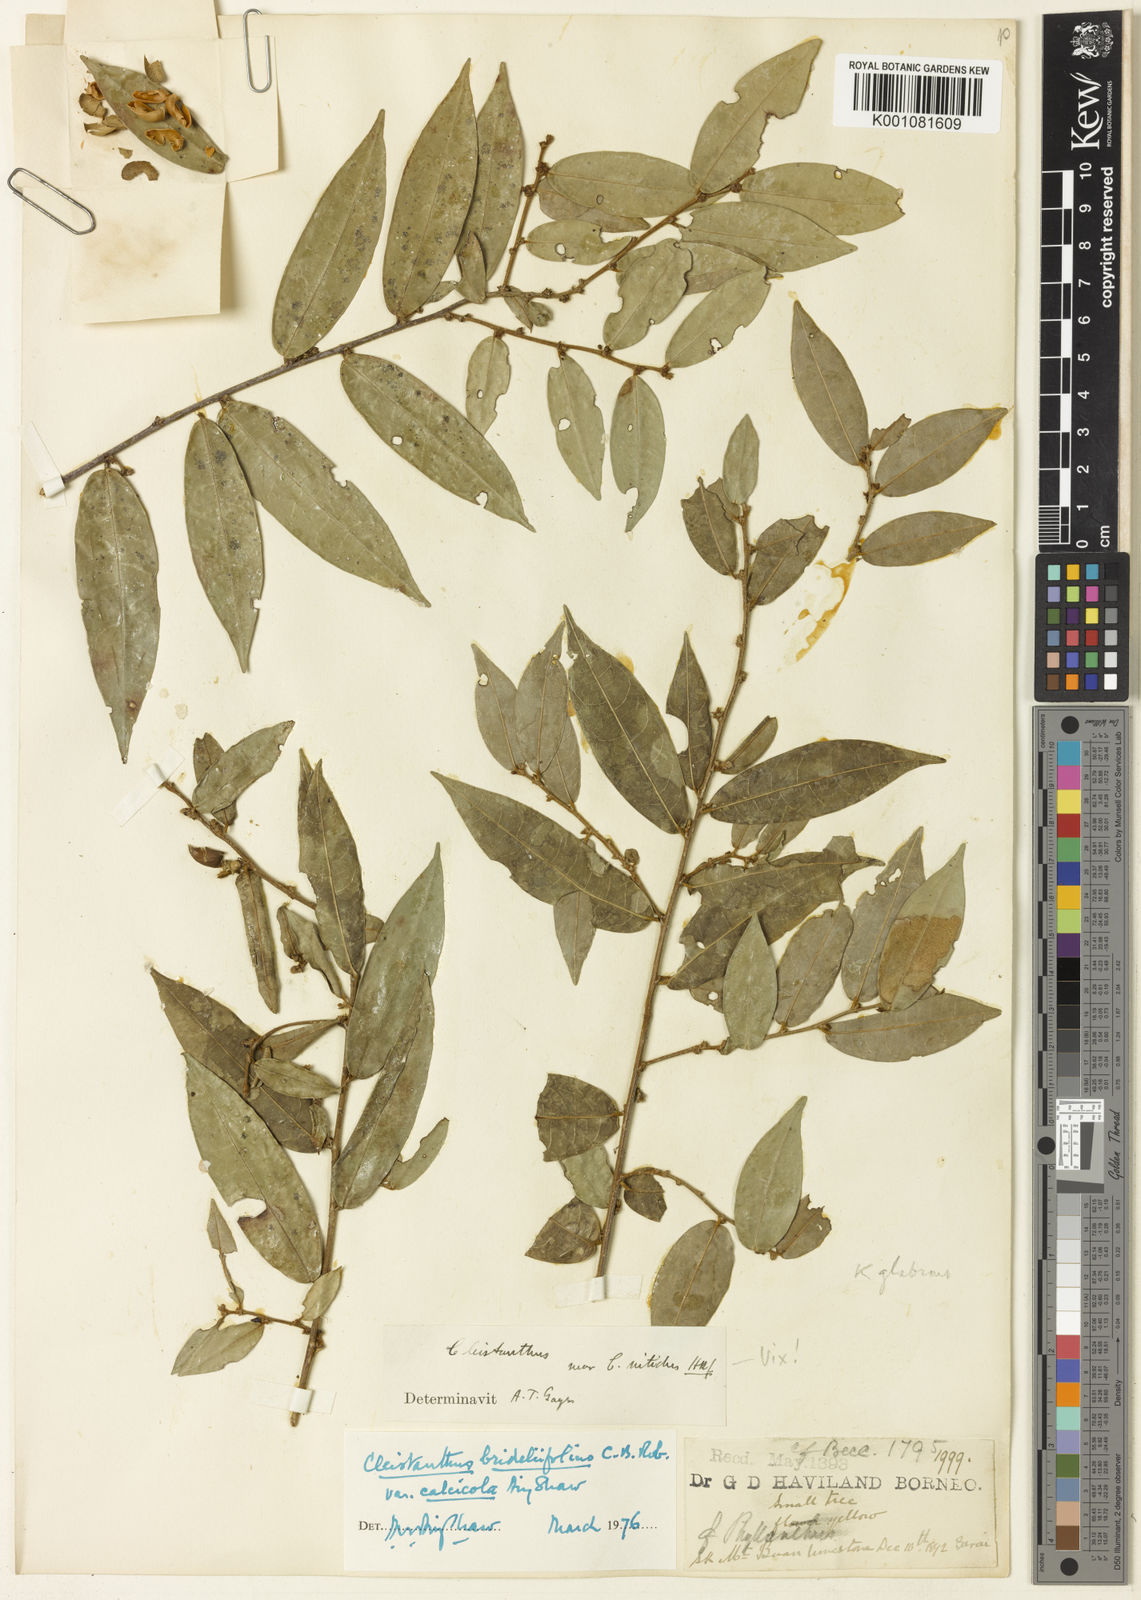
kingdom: Plantae
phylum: Tracheophyta
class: Magnoliopsida
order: Malpighiales
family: Phyllanthaceae
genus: Cleistanthus
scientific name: Cleistanthus brideliifolius
